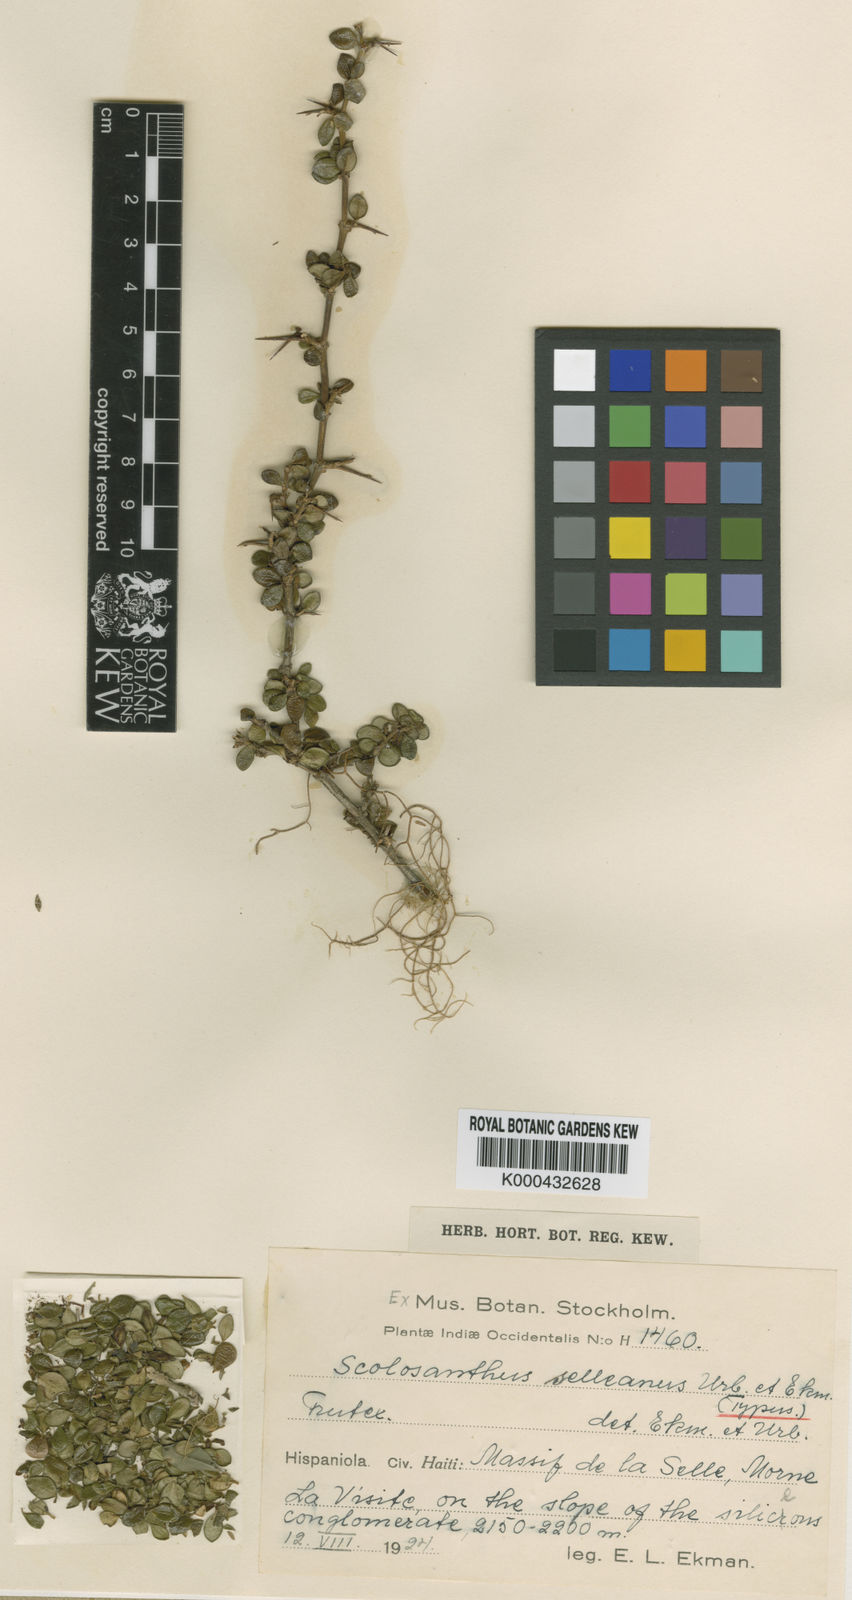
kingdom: Plantae
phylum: Tracheophyta
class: Magnoliopsida
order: Gentianales
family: Rubiaceae
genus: Scolosanthus
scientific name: Scolosanthus selleanus
